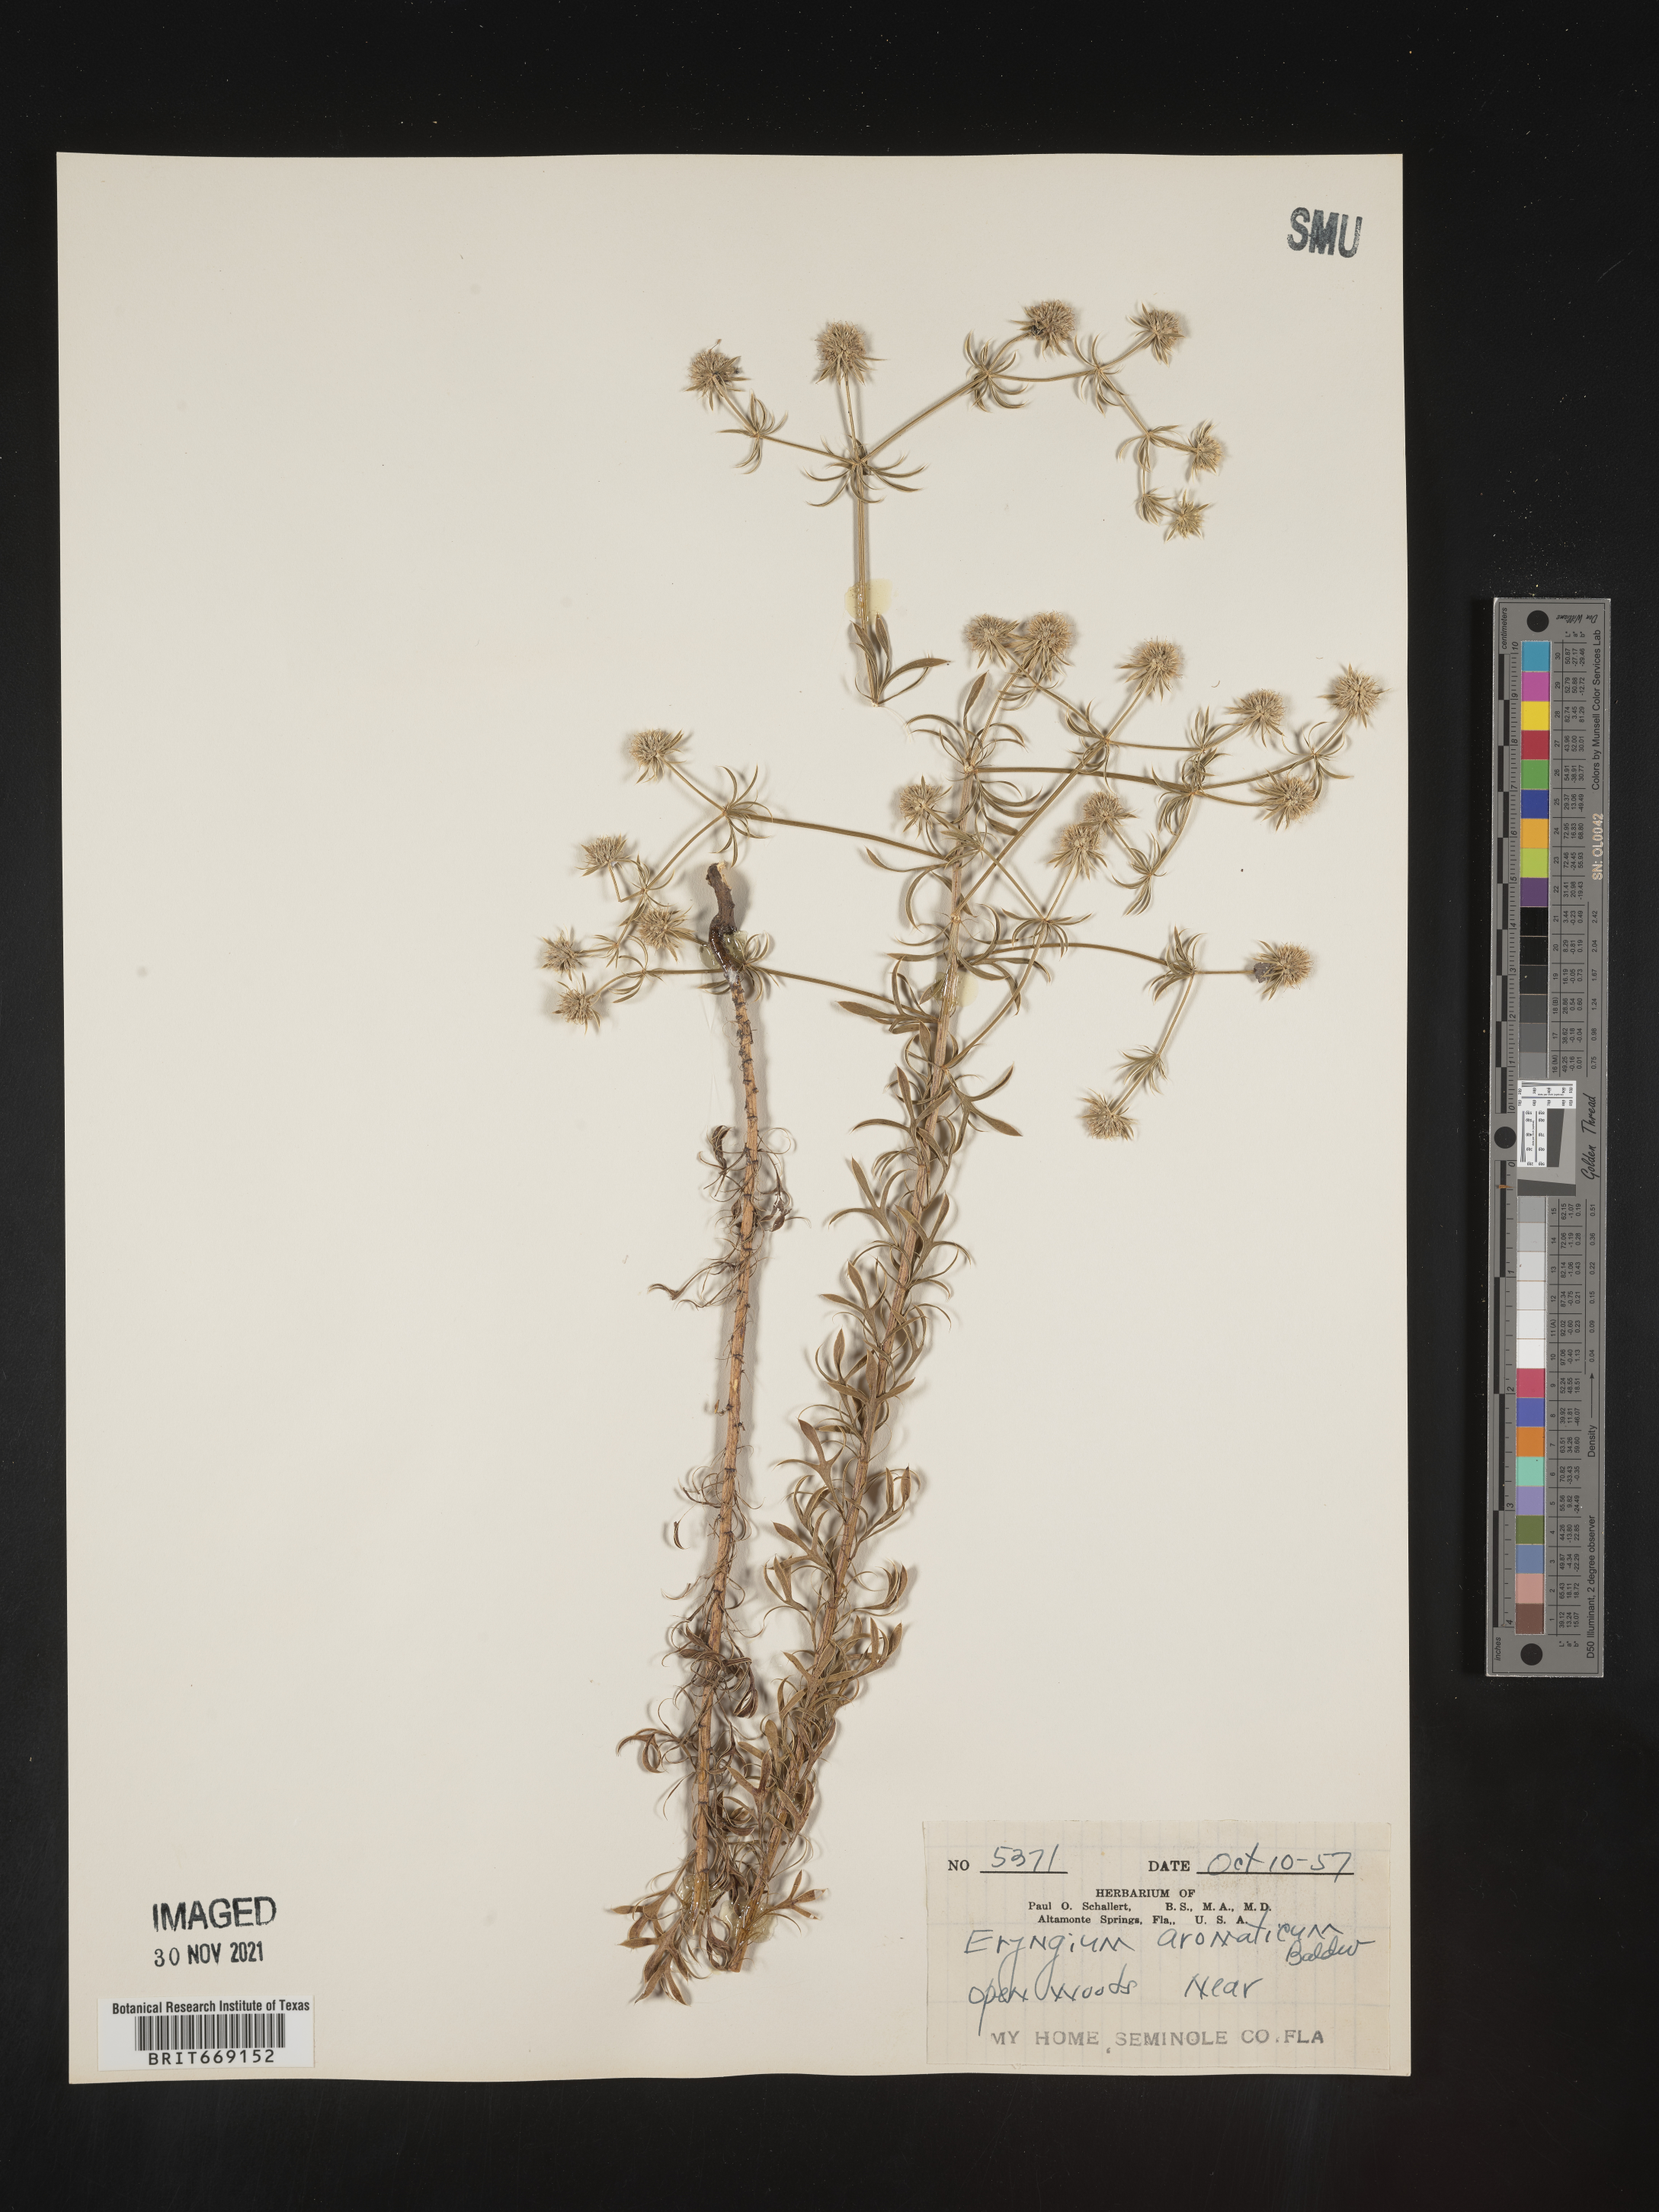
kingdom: Plantae
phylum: Tracheophyta
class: Magnoliopsida
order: Apiales
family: Apiaceae
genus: Eryngium
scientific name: Eryngium aromaticum
